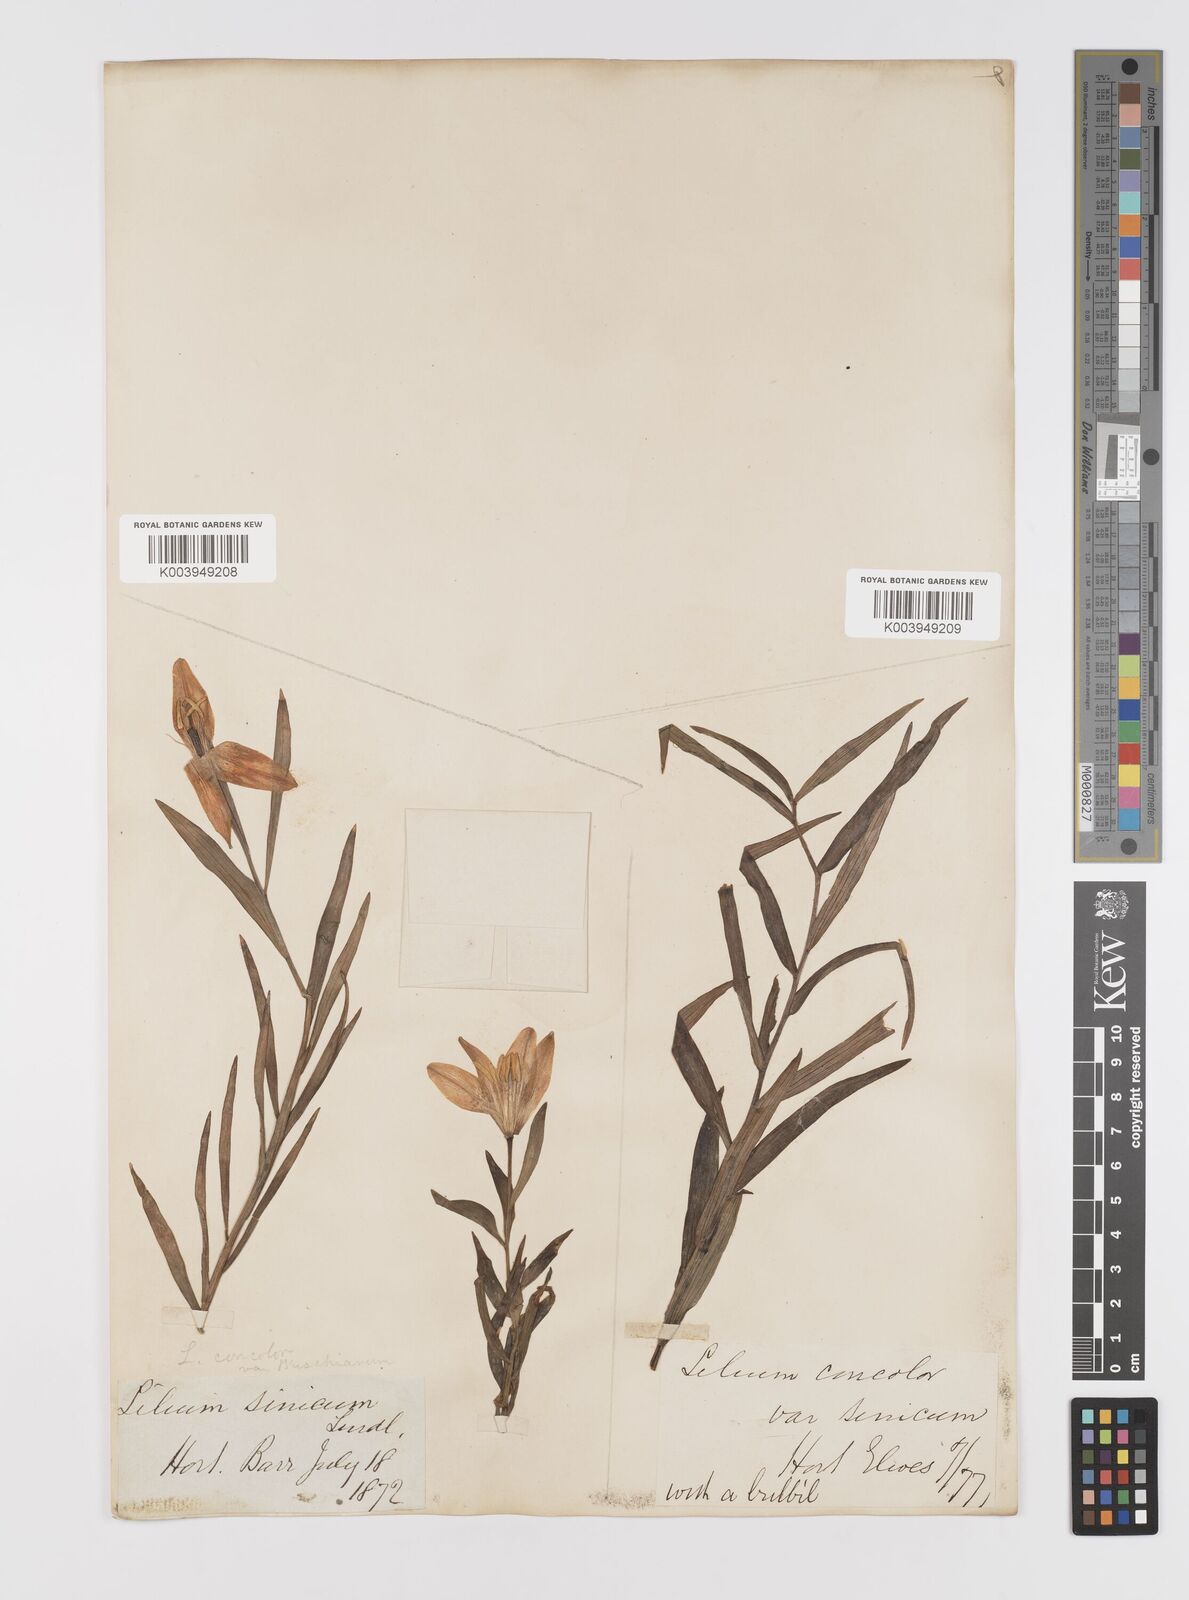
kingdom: Plantae
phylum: Tracheophyta
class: Liliopsida
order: Liliales
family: Liliaceae
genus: Lilium
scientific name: Lilium concolor
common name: Morning-star lily
